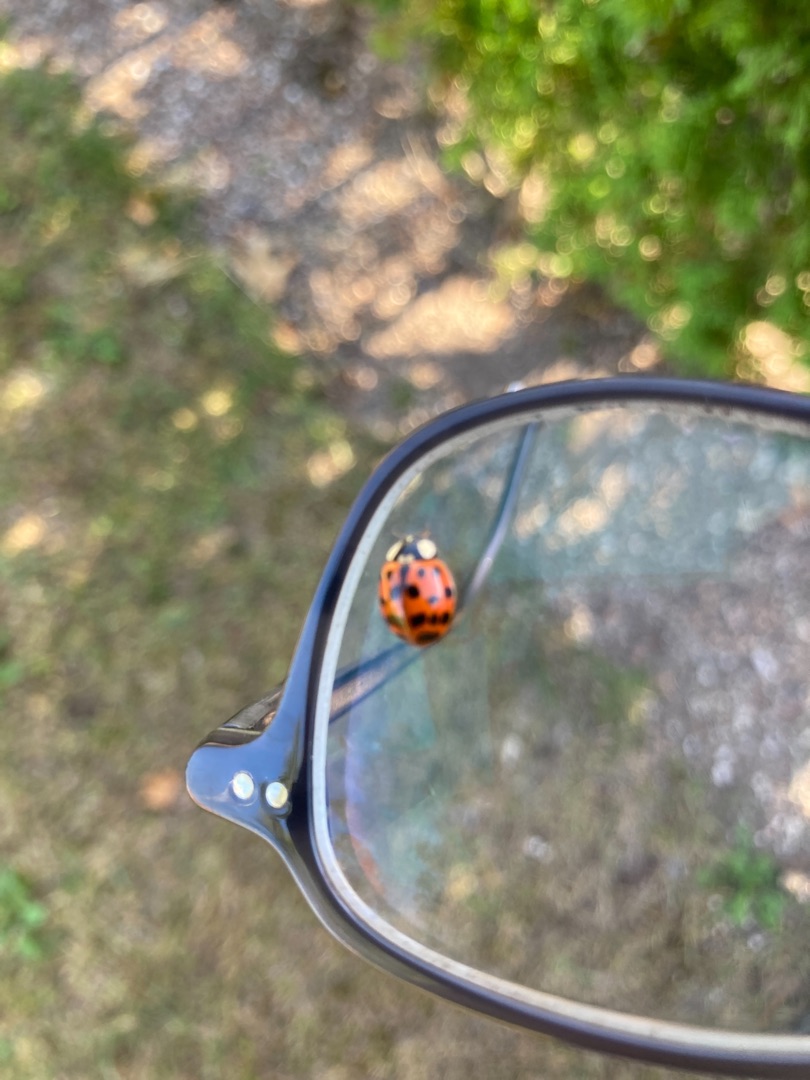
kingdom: Animalia
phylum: Arthropoda
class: Insecta
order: Coleoptera
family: Coccinellidae
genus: Harmonia
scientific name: Harmonia axyridis
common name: Harlekinmariehøne
